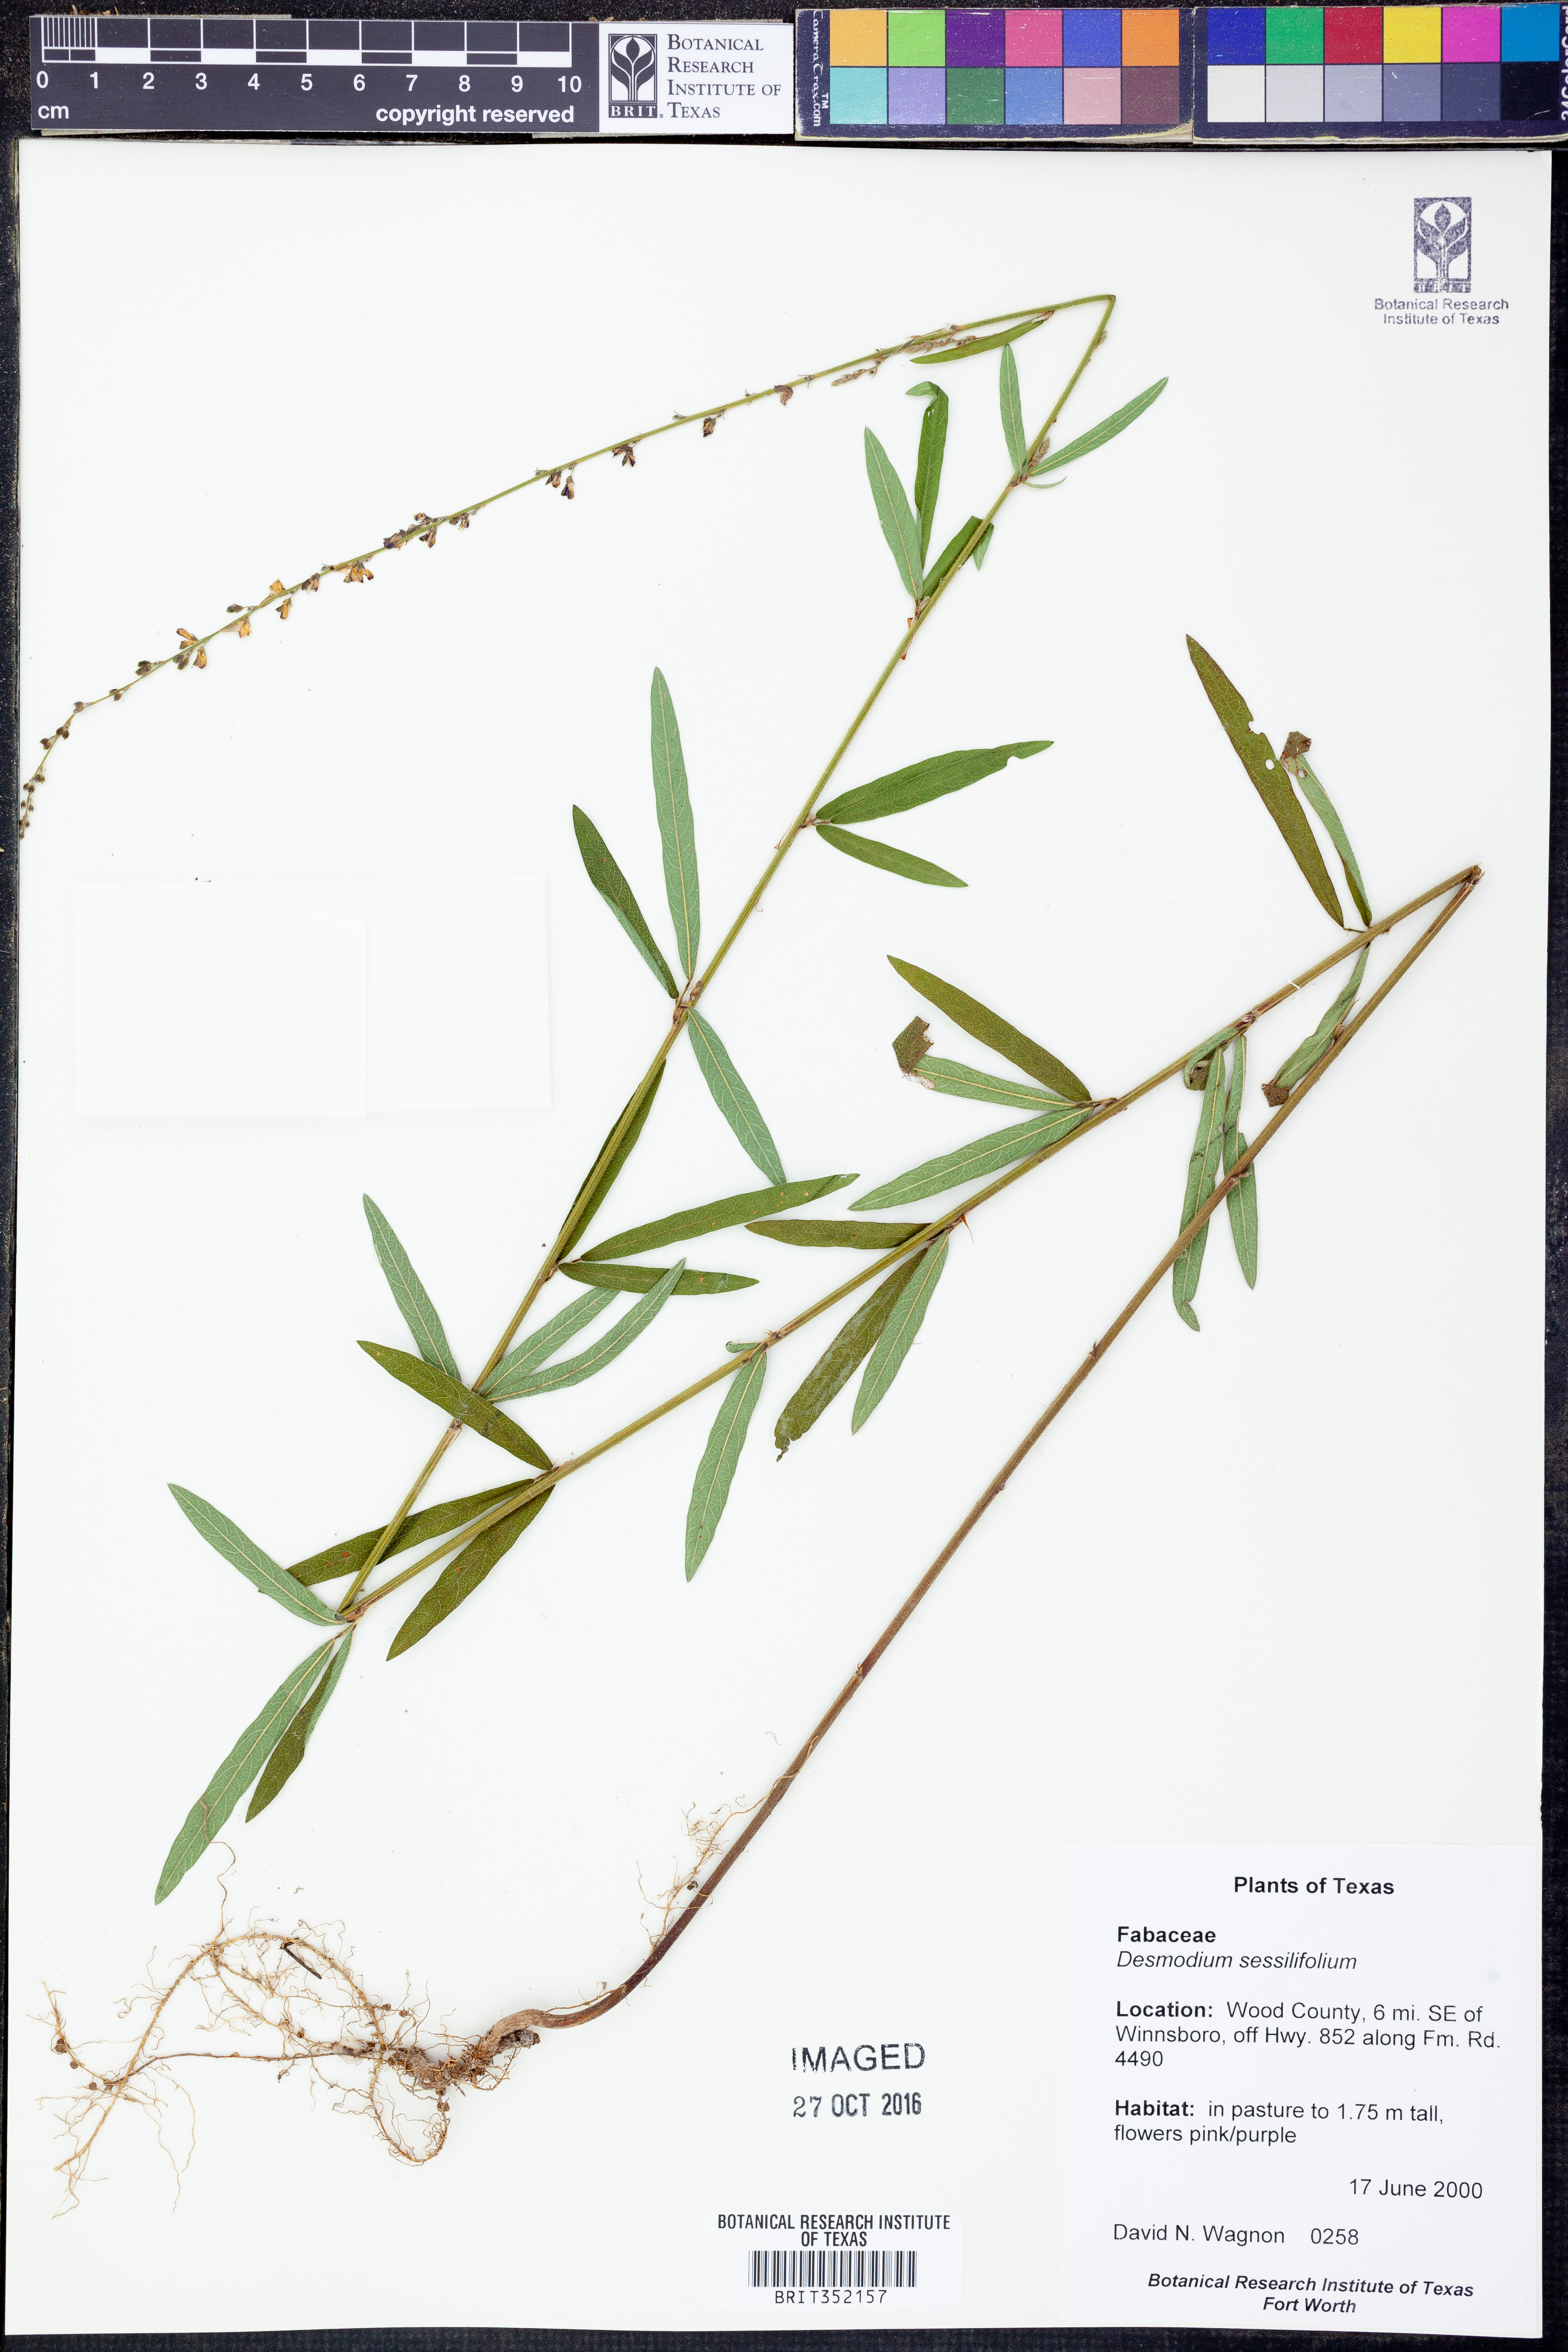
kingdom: Plantae
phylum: Tracheophyta
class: Magnoliopsida
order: Fabales
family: Fabaceae
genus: Desmodium
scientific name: Desmodium sessilifolium
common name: Sessile tick-clover
